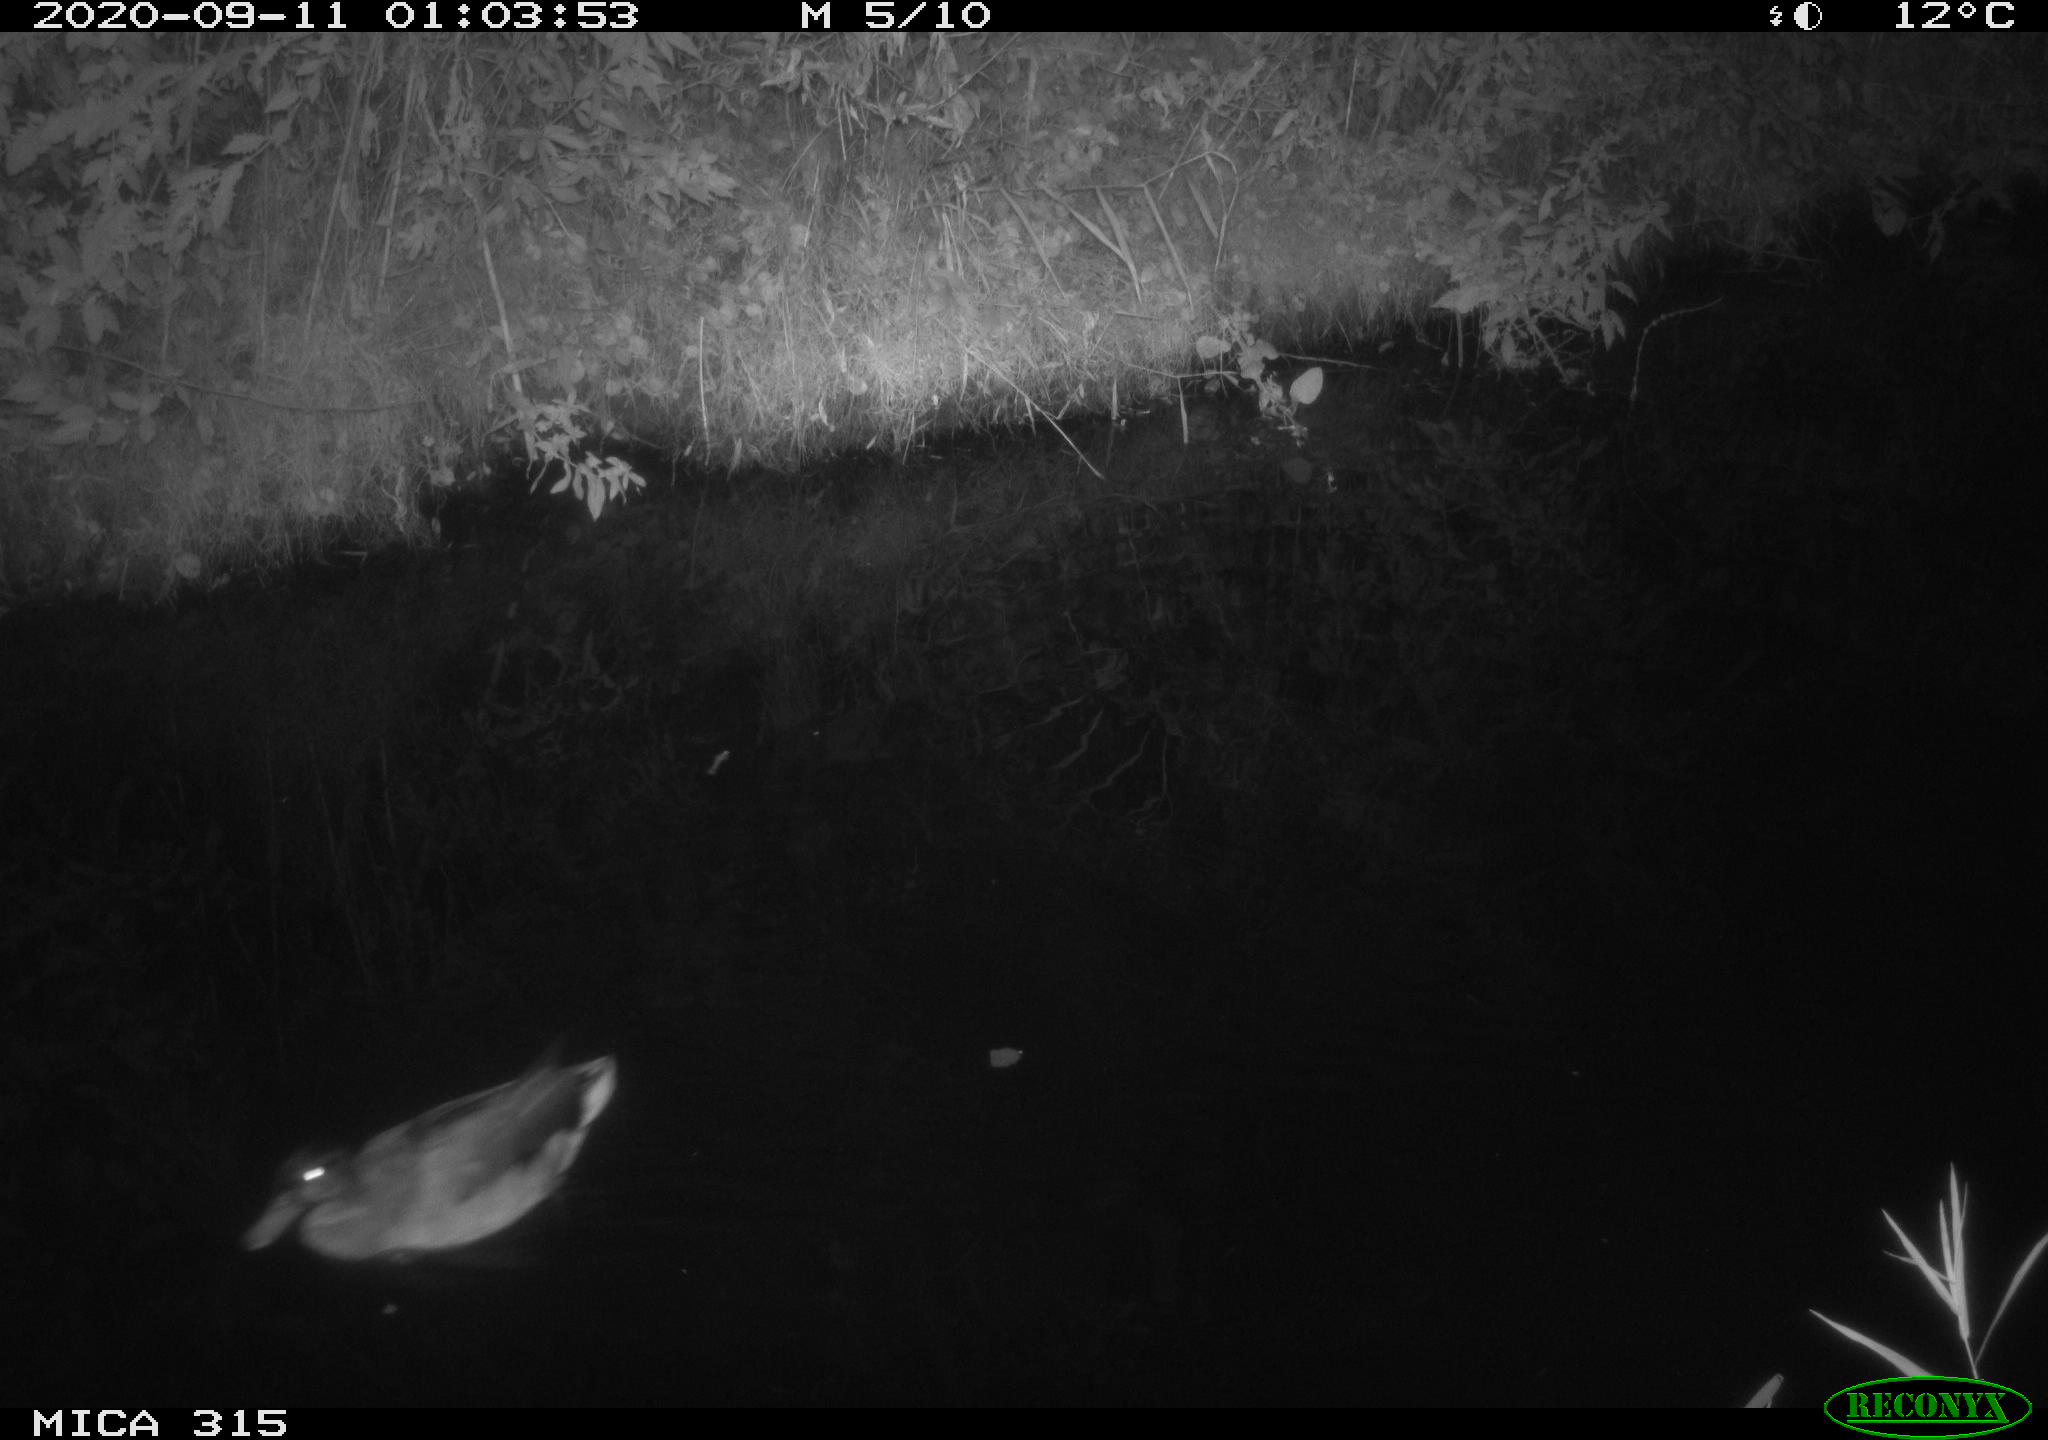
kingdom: Animalia
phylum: Chordata
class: Aves
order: Anseriformes
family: Anatidae
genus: Anas
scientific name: Anas platyrhynchos
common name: Mallard
